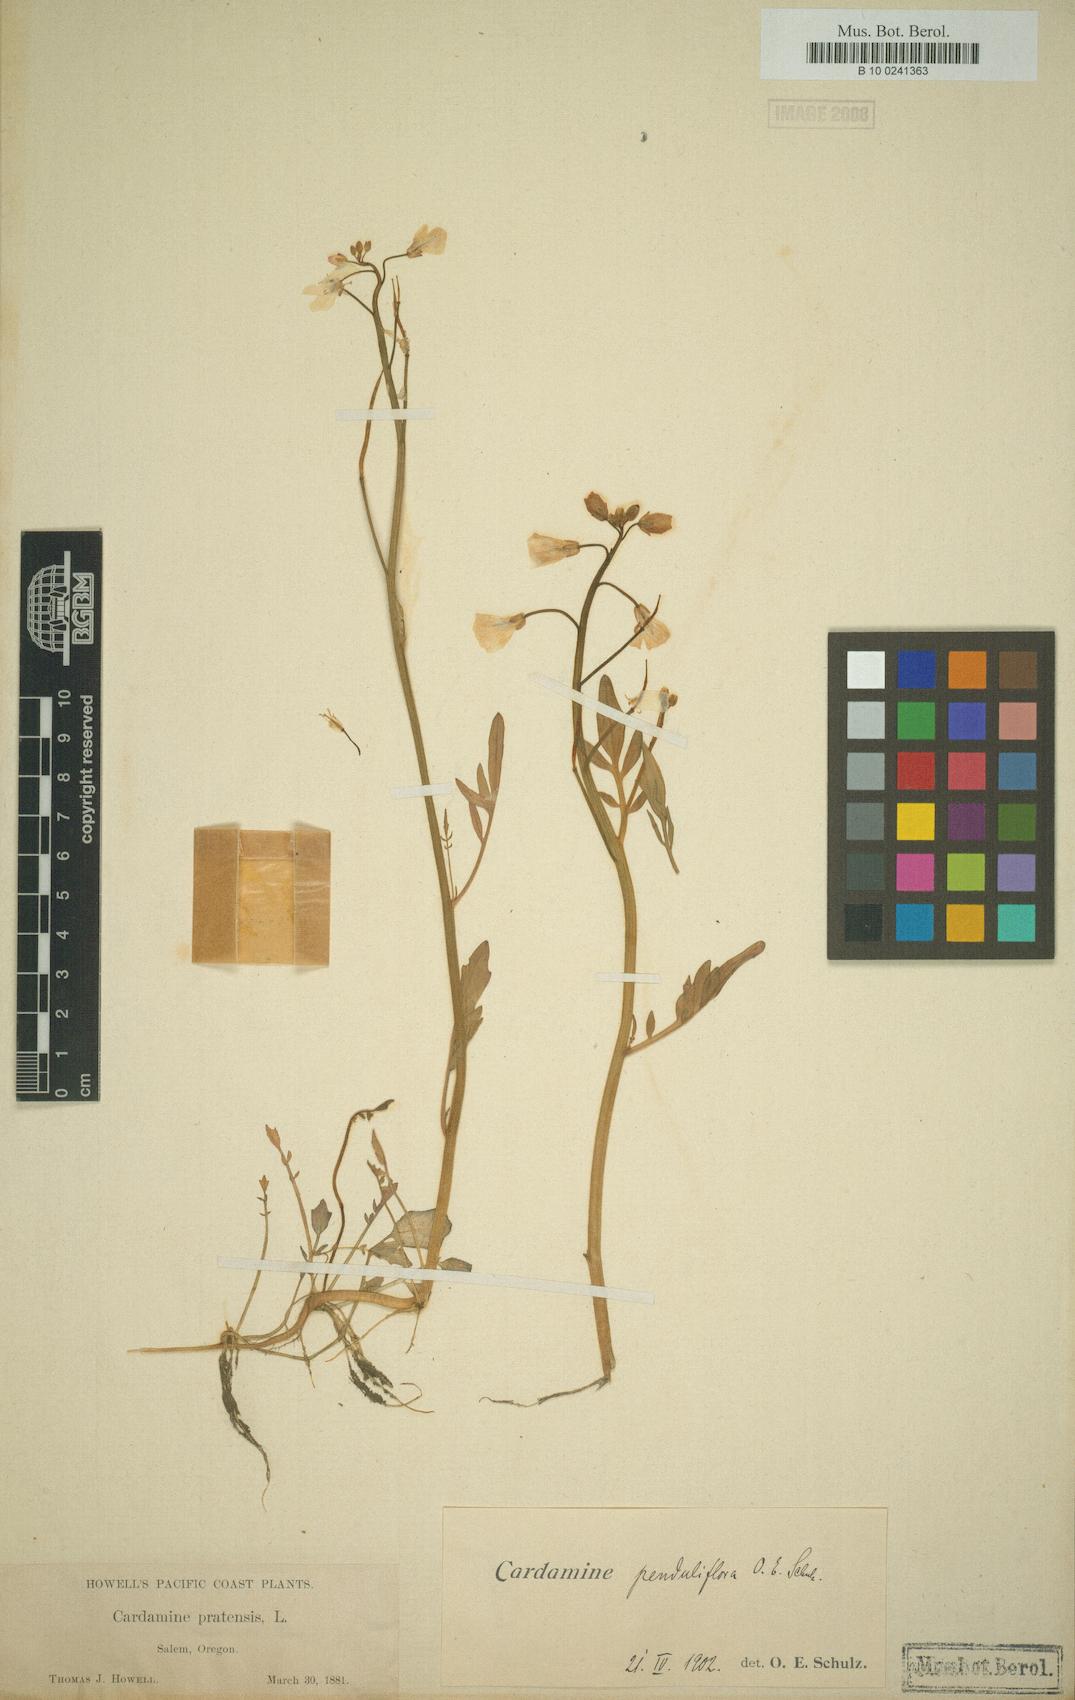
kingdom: Plantae
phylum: Tracheophyta
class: Magnoliopsida
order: Brassicales
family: Brassicaceae
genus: Cardamine
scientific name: Cardamine penduliflora
